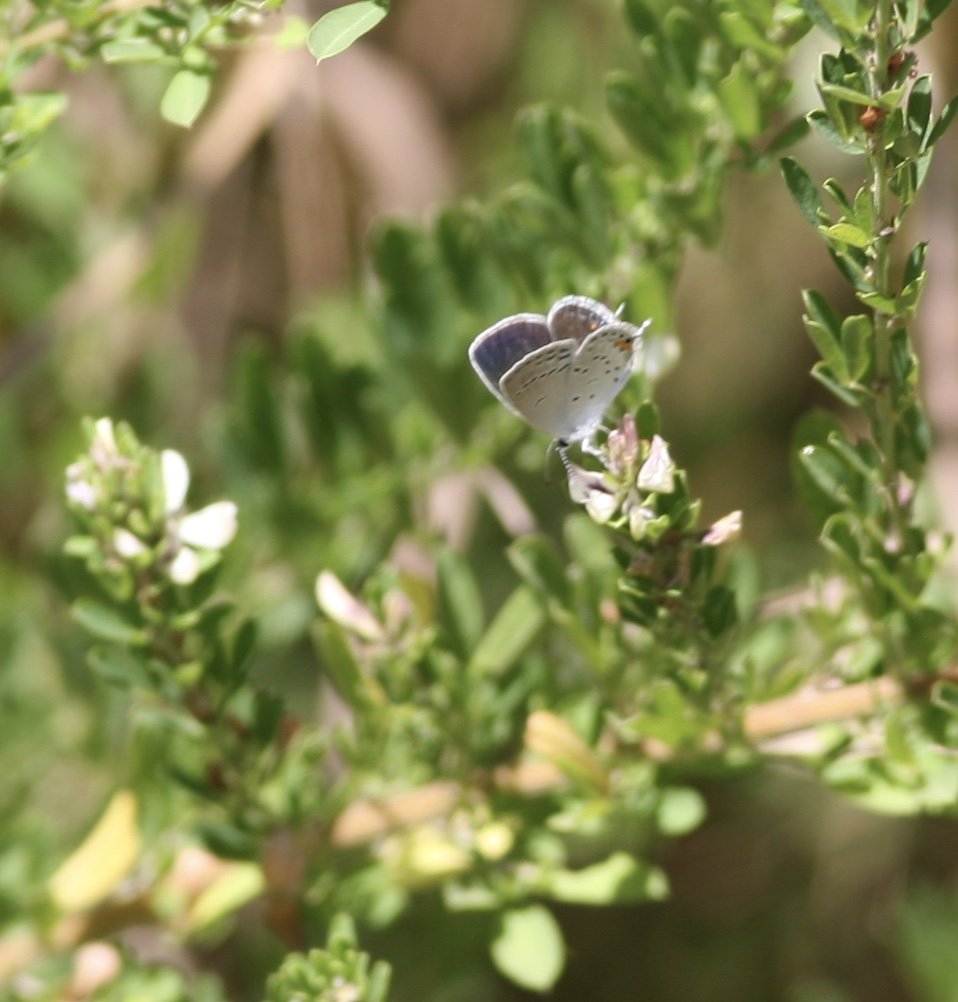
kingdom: Animalia
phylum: Arthropoda
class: Insecta
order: Lepidoptera
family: Lycaenidae
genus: Elkalyce
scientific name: Elkalyce comyntas
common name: Eastern Tailed-Blue
